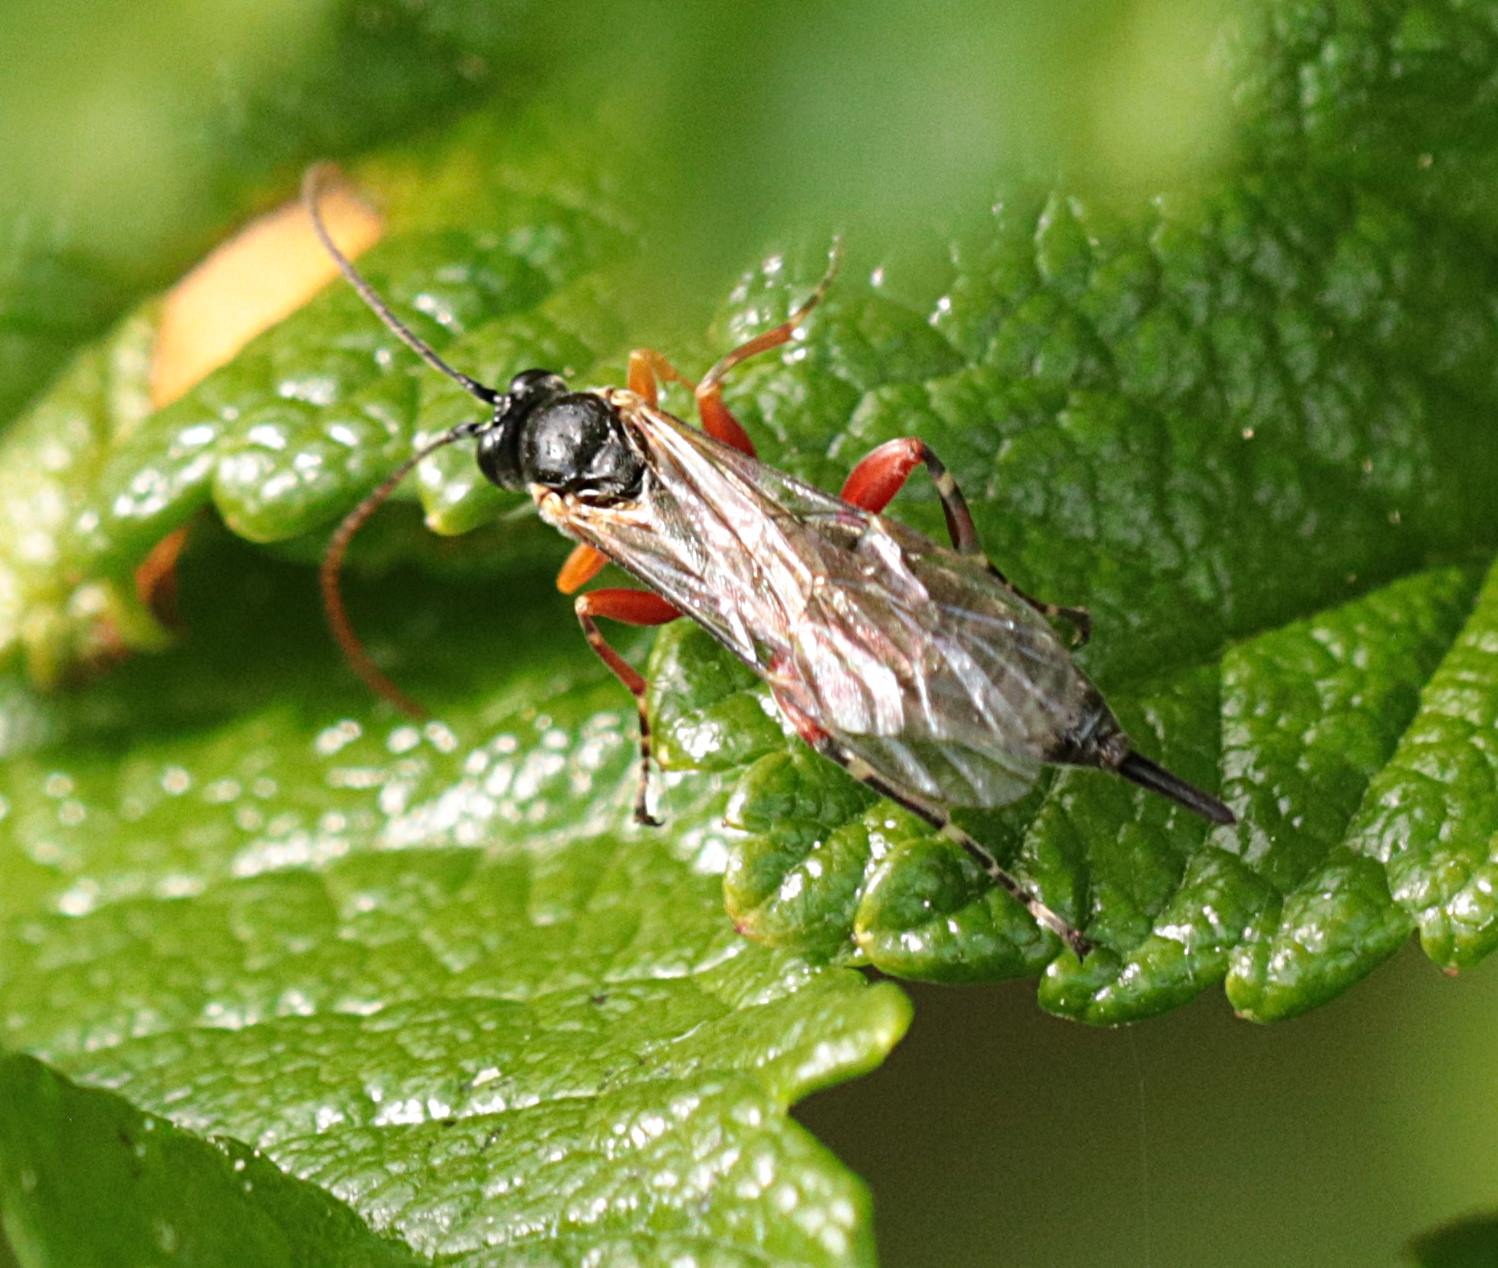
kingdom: Animalia
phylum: Arthropoda
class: Insecta
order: Hymenoptera
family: Ichneumonidae
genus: Itoplectis
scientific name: Itoplectis alternans
